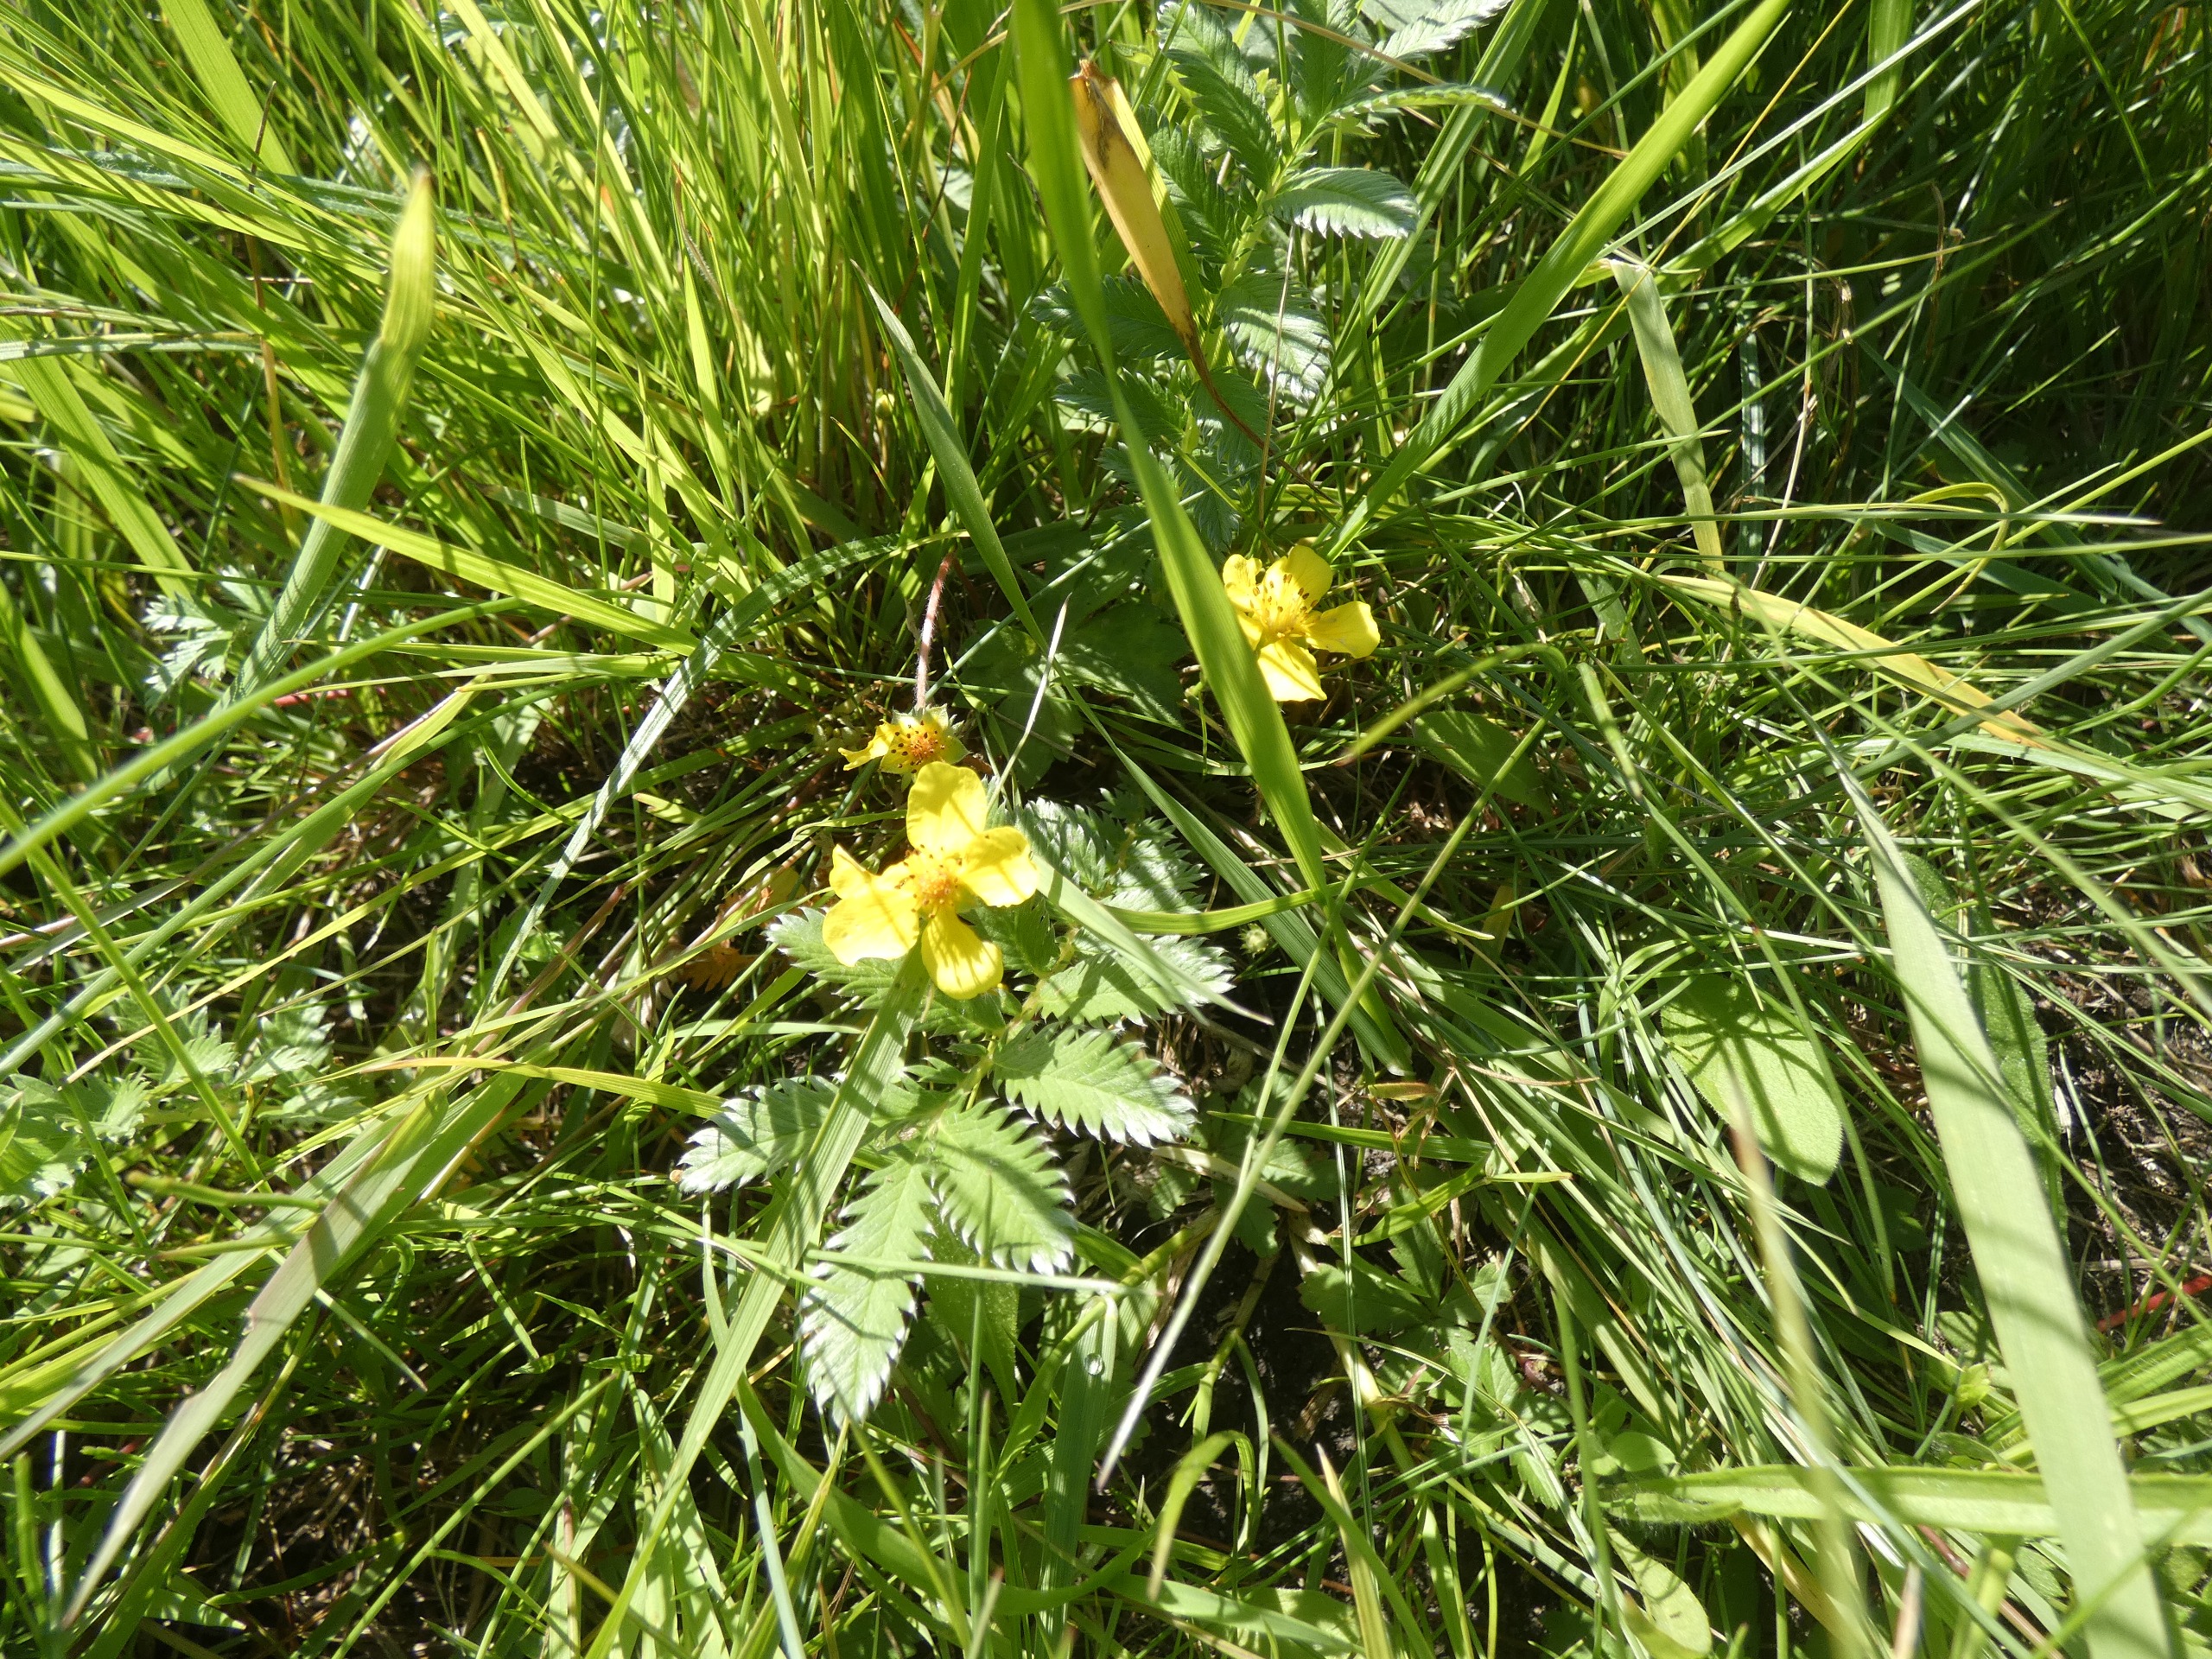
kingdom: Plantae
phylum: Tracheophyta
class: Magnoliopsida
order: Rosales
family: Rosaceae
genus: Argentina
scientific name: Argentina anserina
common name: Gåsepotentil
